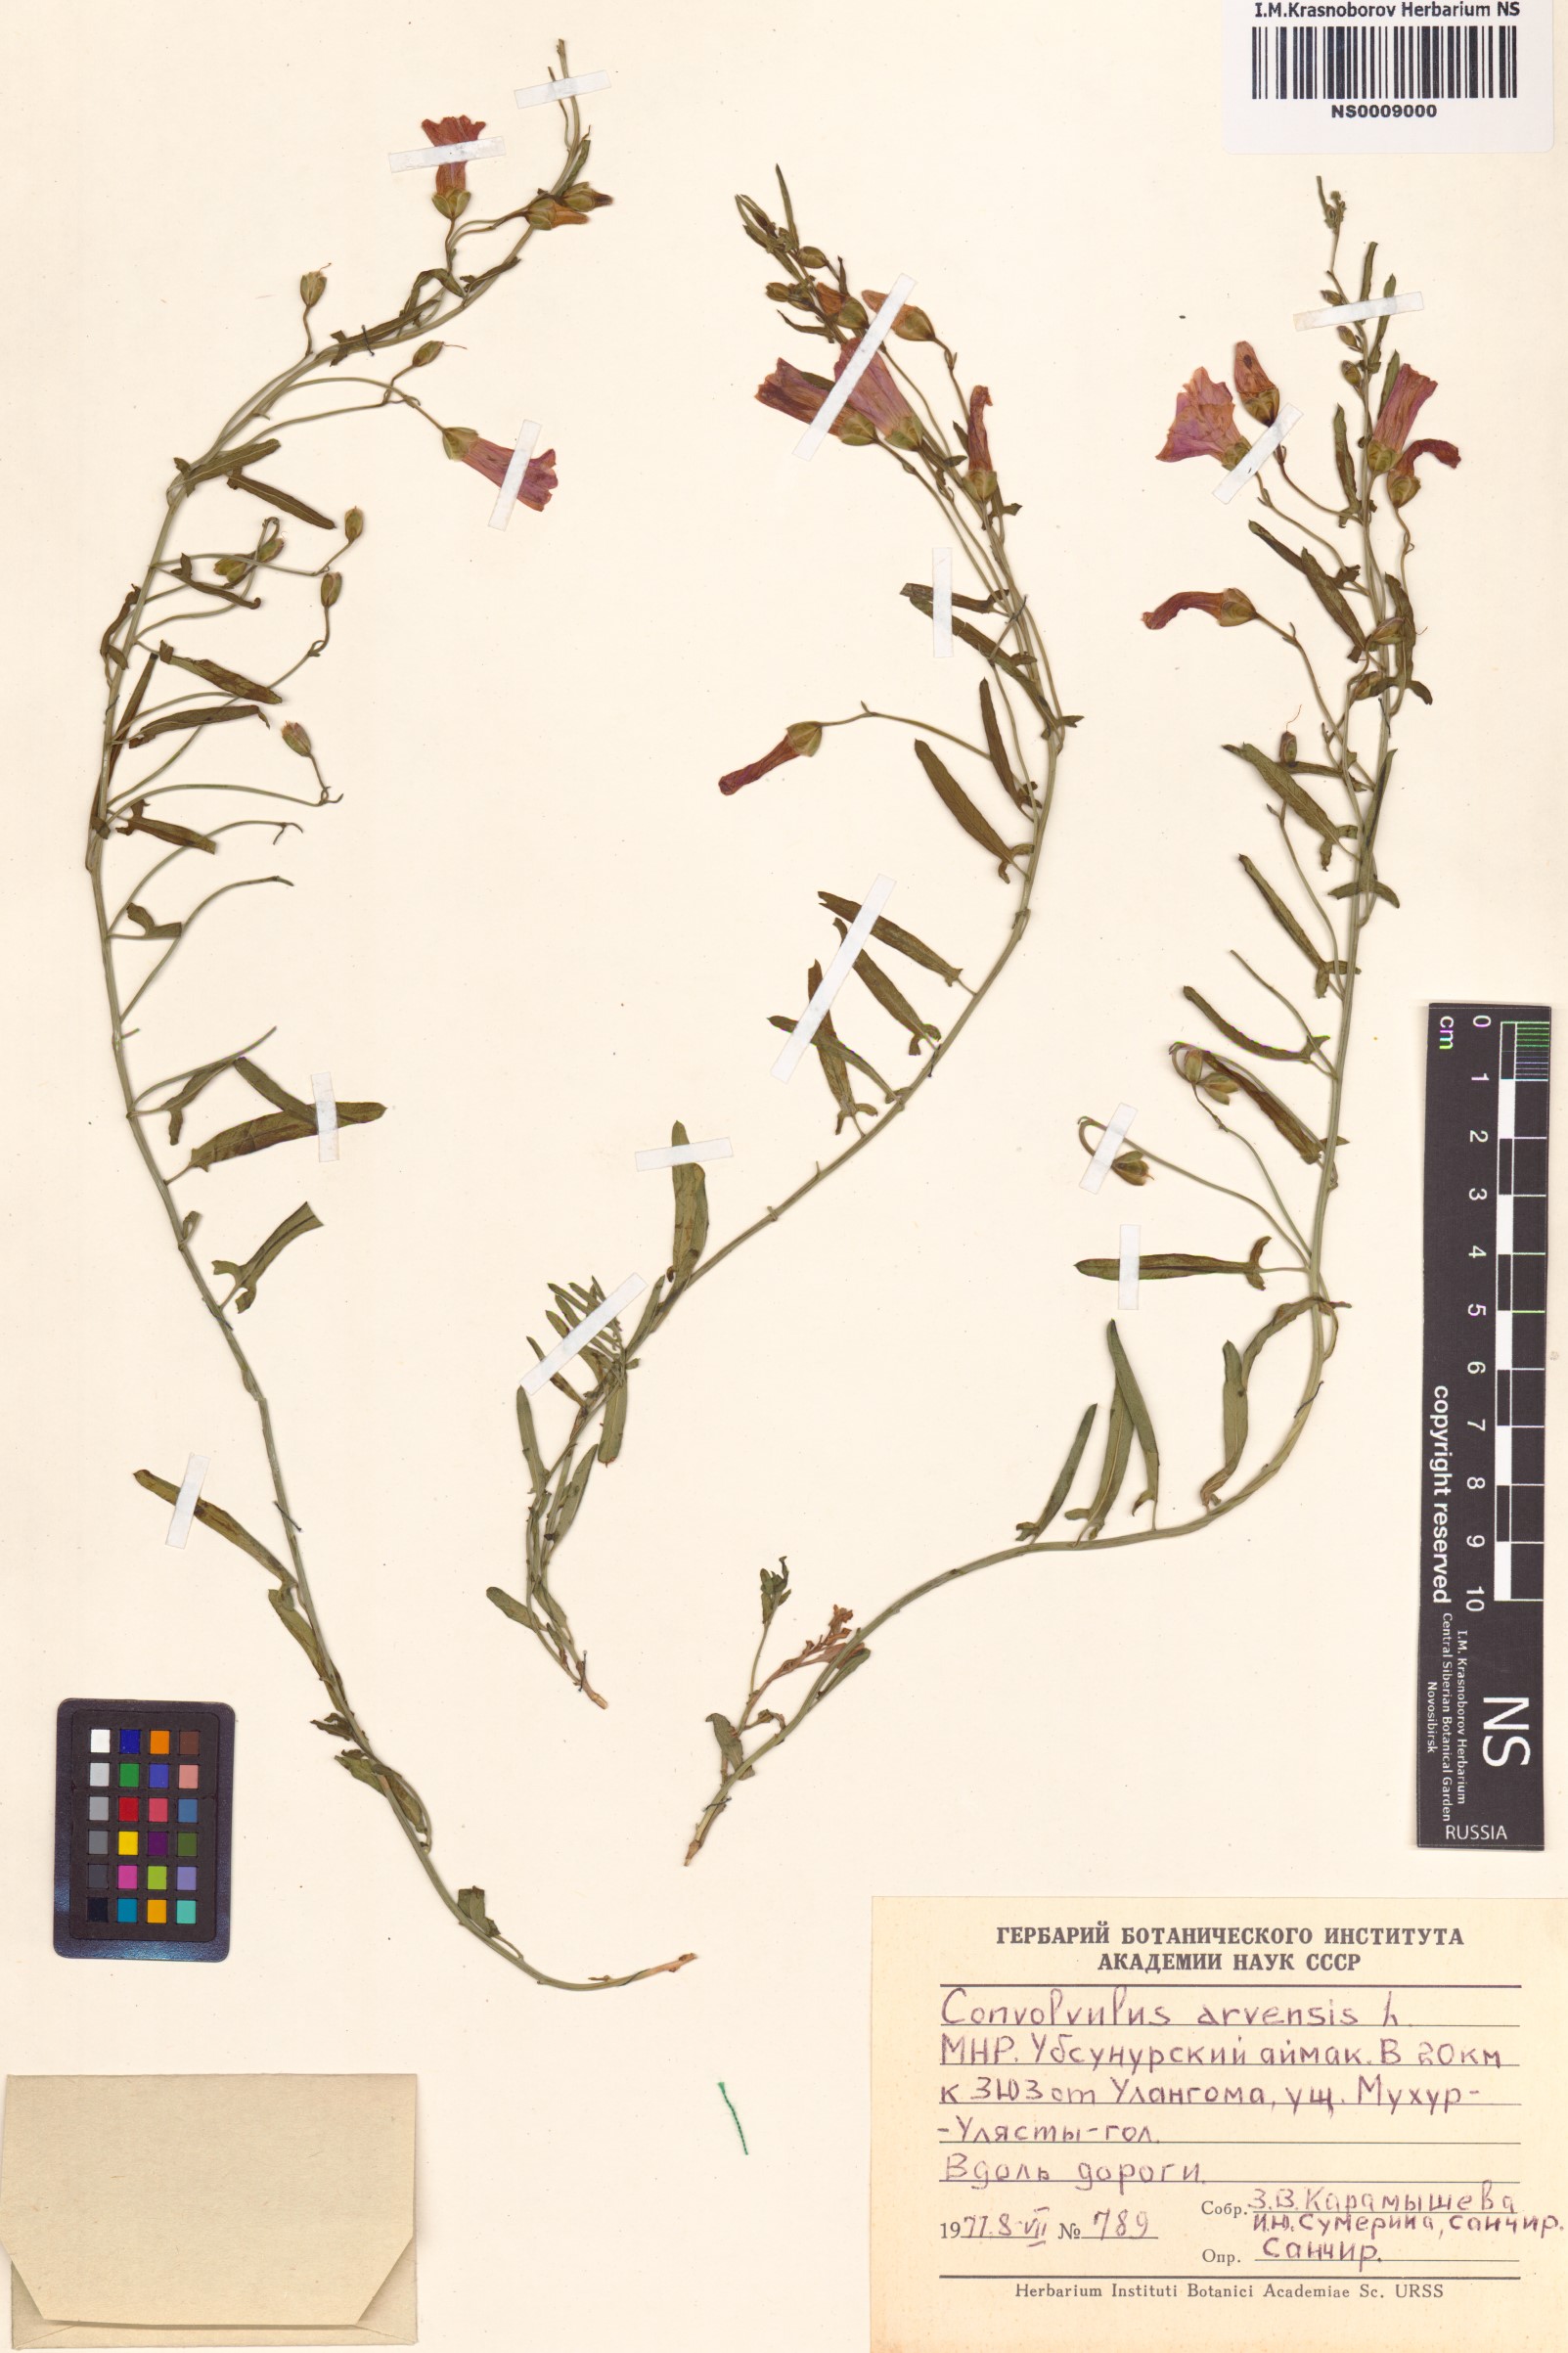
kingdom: Plantae
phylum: Tracheophyta
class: Magnoliopsida
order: Solanales
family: Convolvulaceae
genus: Convolvulus
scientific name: Convolvulus arvensis
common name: Field bindweed
